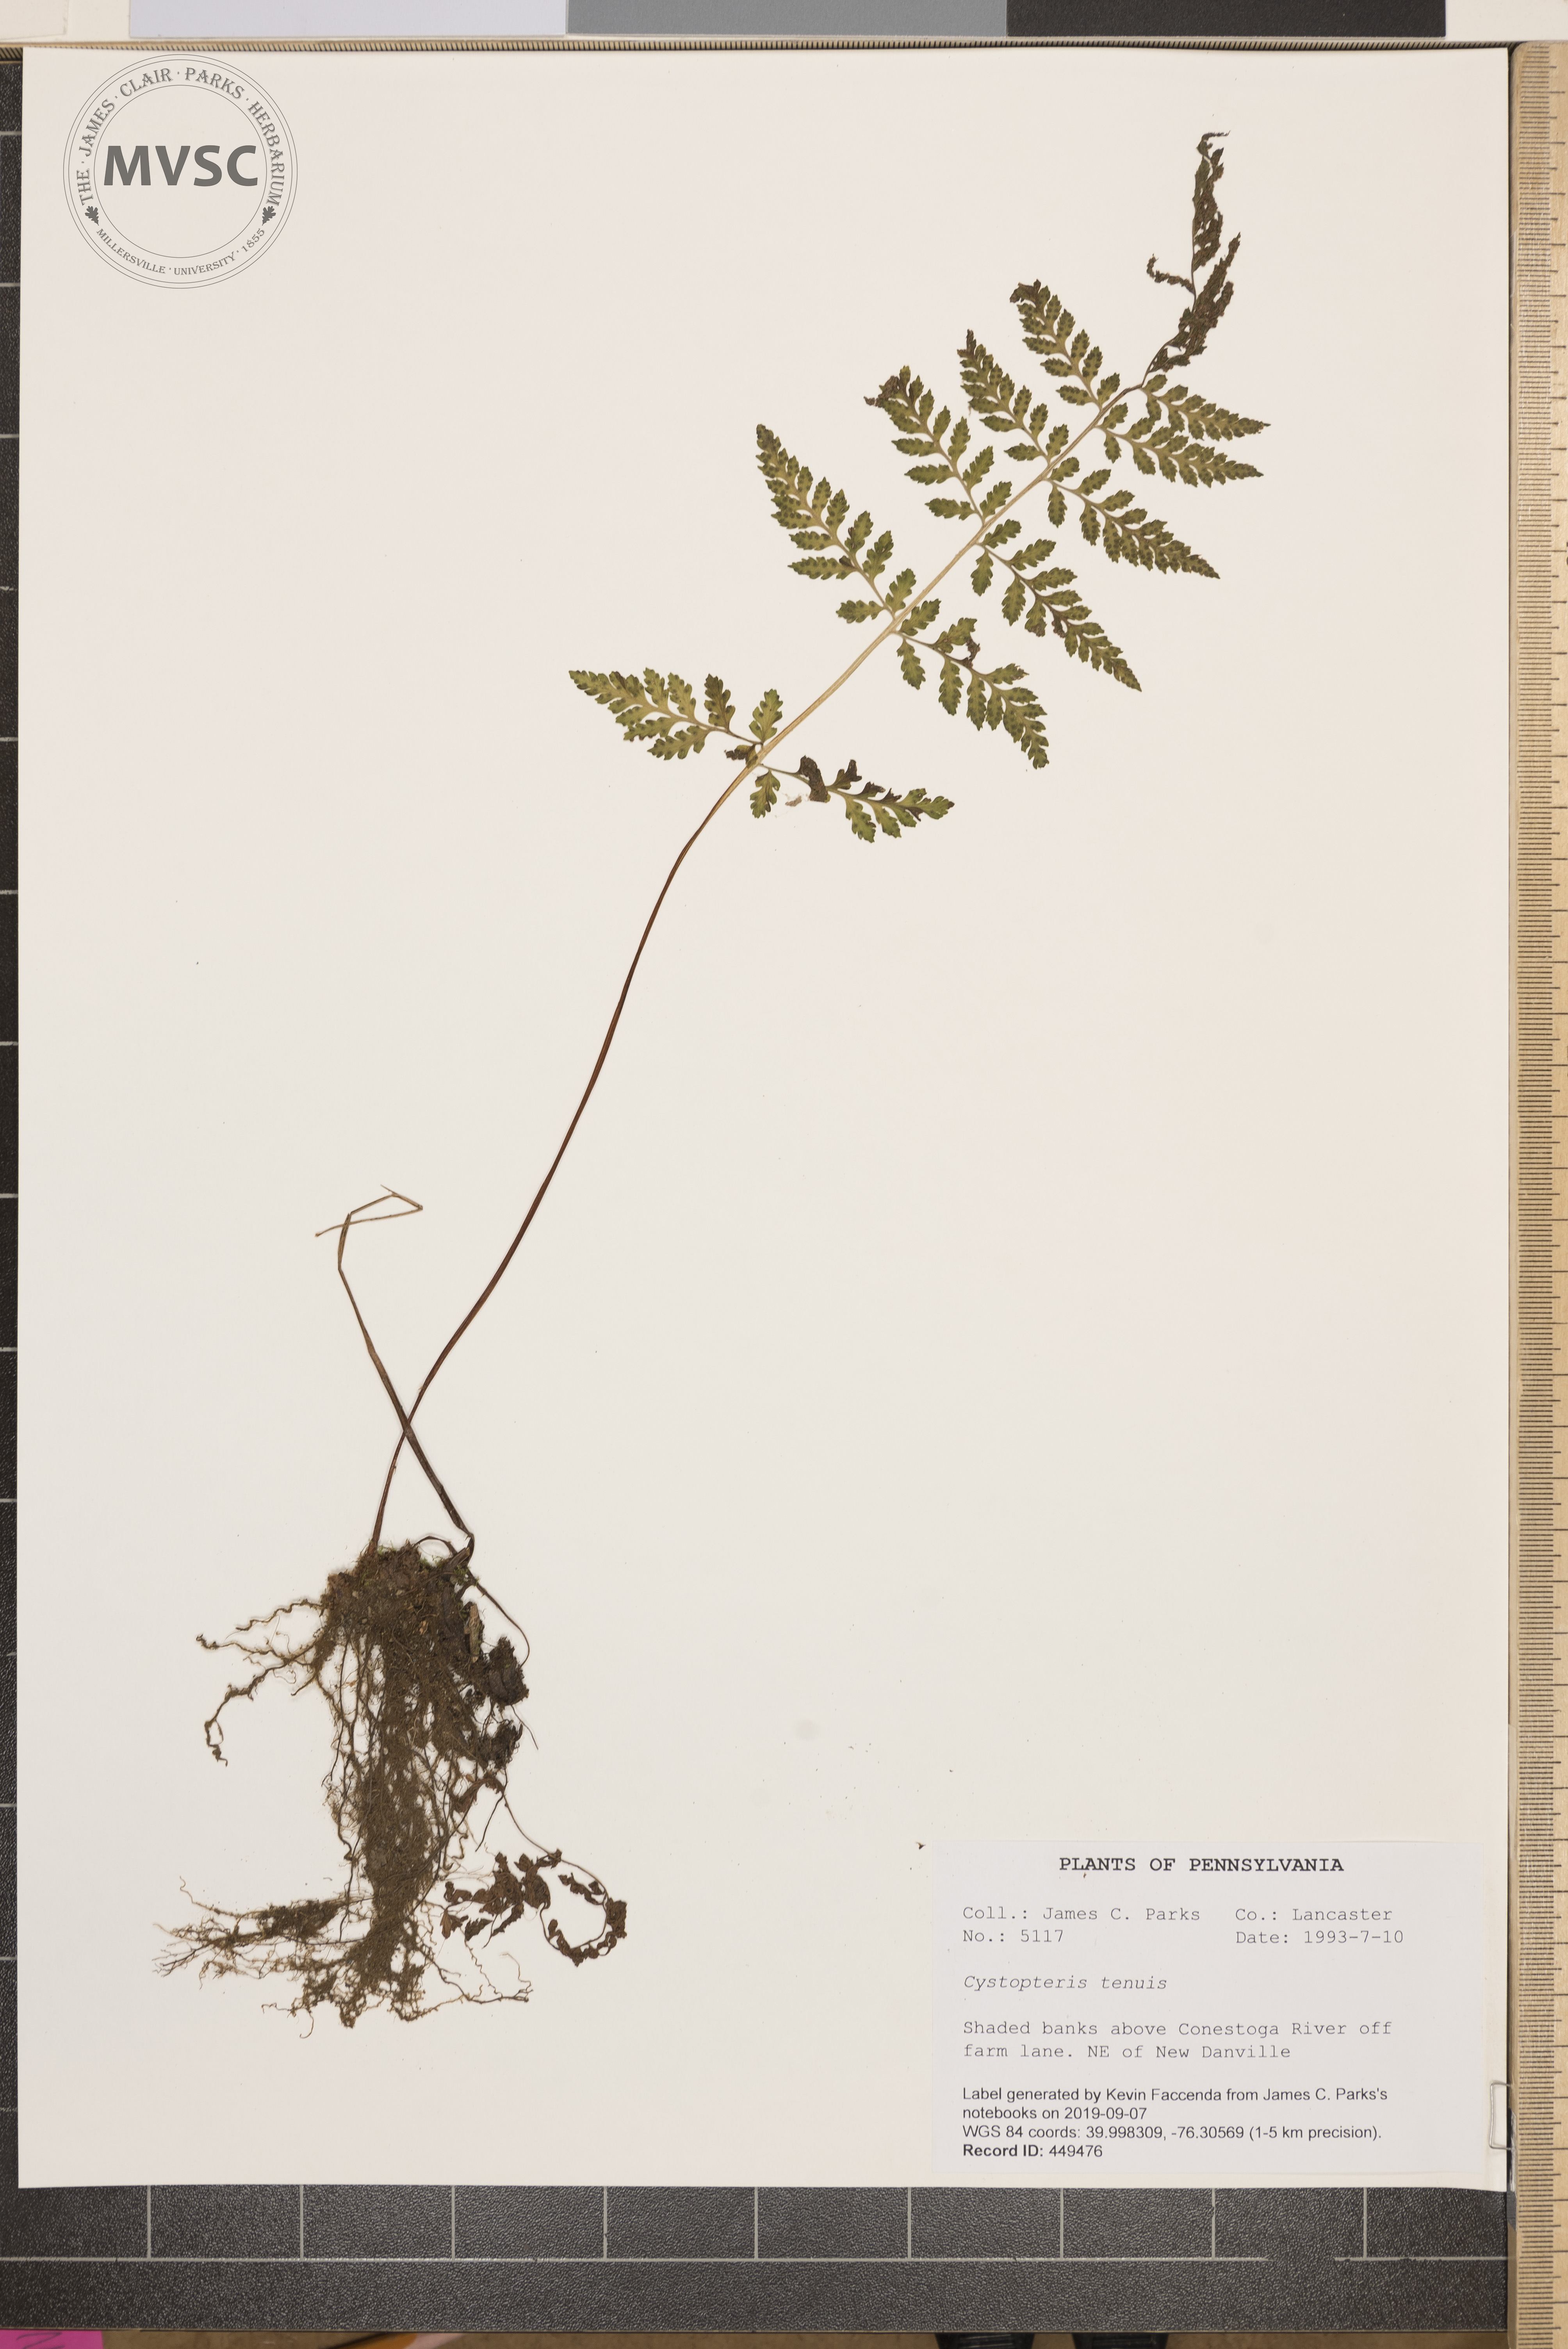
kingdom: Plantae
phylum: Tracheophyta
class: Polypodiopsida
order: Polypodiales
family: Cystopteridaceae
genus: Cystopteris
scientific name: Cystopteris tenuis
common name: Mackay's brittle fern
